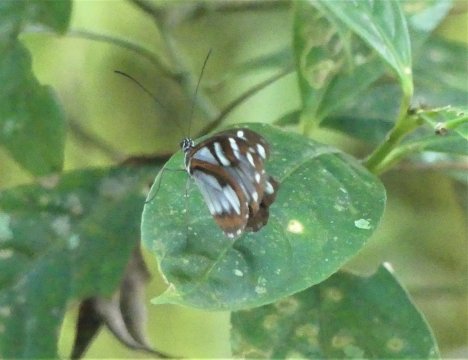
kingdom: Animalia
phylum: Arthropoda
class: Insecta
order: Lepidoptera
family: Nymphalidae
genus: Oleria
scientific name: Oleria radina
